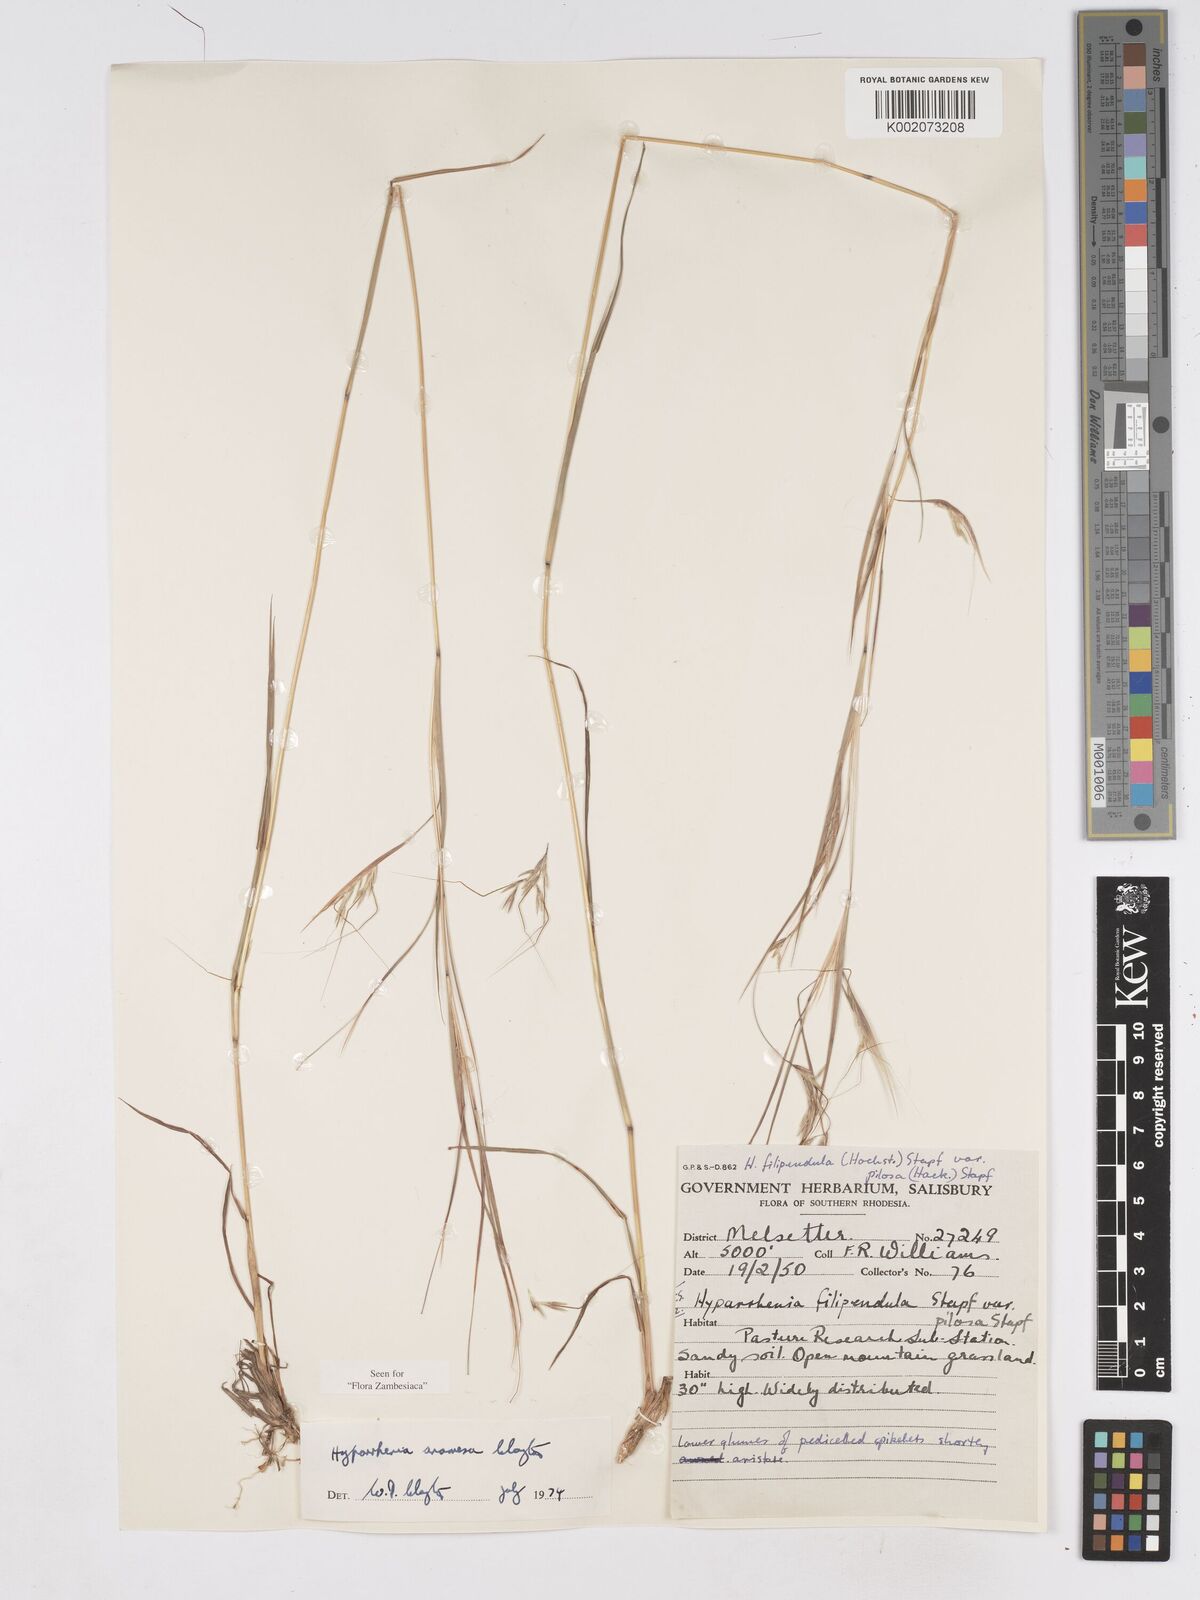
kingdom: Plantae
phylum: Tracheophyta
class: Liliopsida
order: Poales
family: Poaceae
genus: Hyparrhenia
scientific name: Hyparrhenia anamesa
